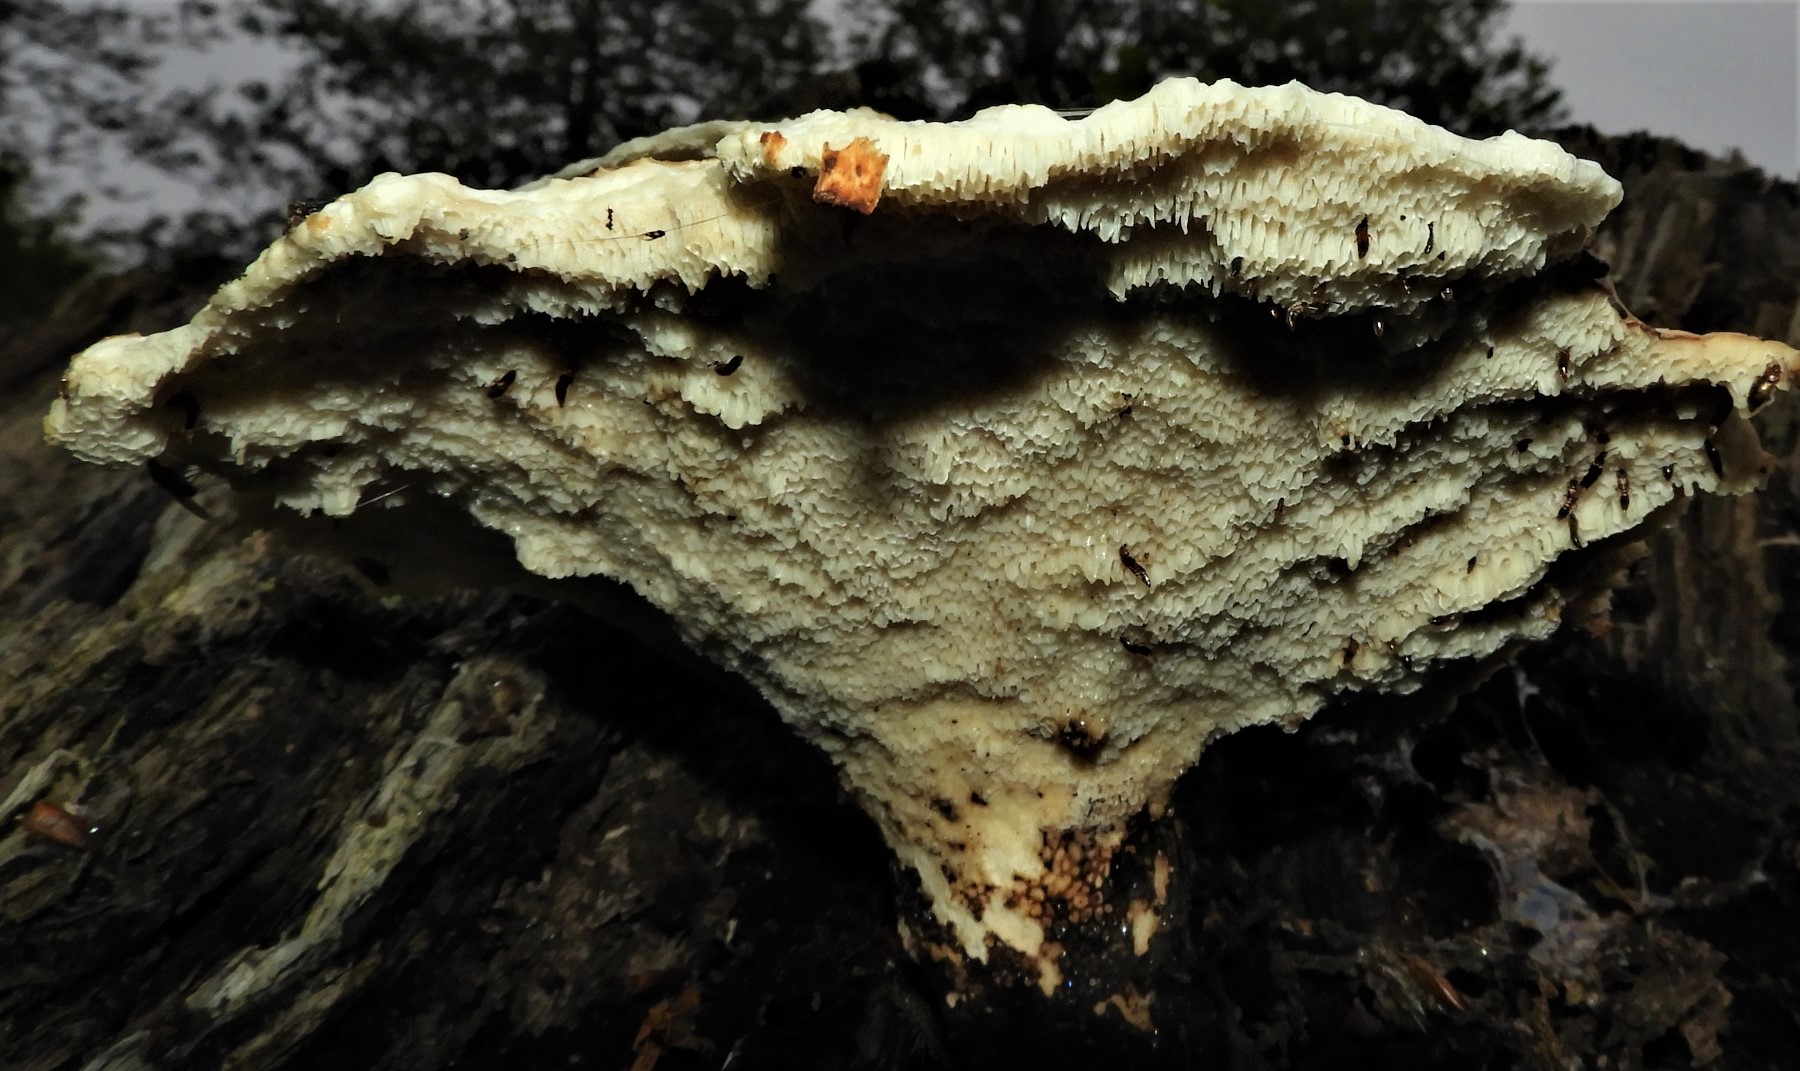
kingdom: Fungi
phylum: Basidiomycota
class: Agaricomycetes
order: Polyporales
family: Polyporaceae
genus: Cerioporus
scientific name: Cerioporus squamosus
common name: skællet stilkporesvamp
